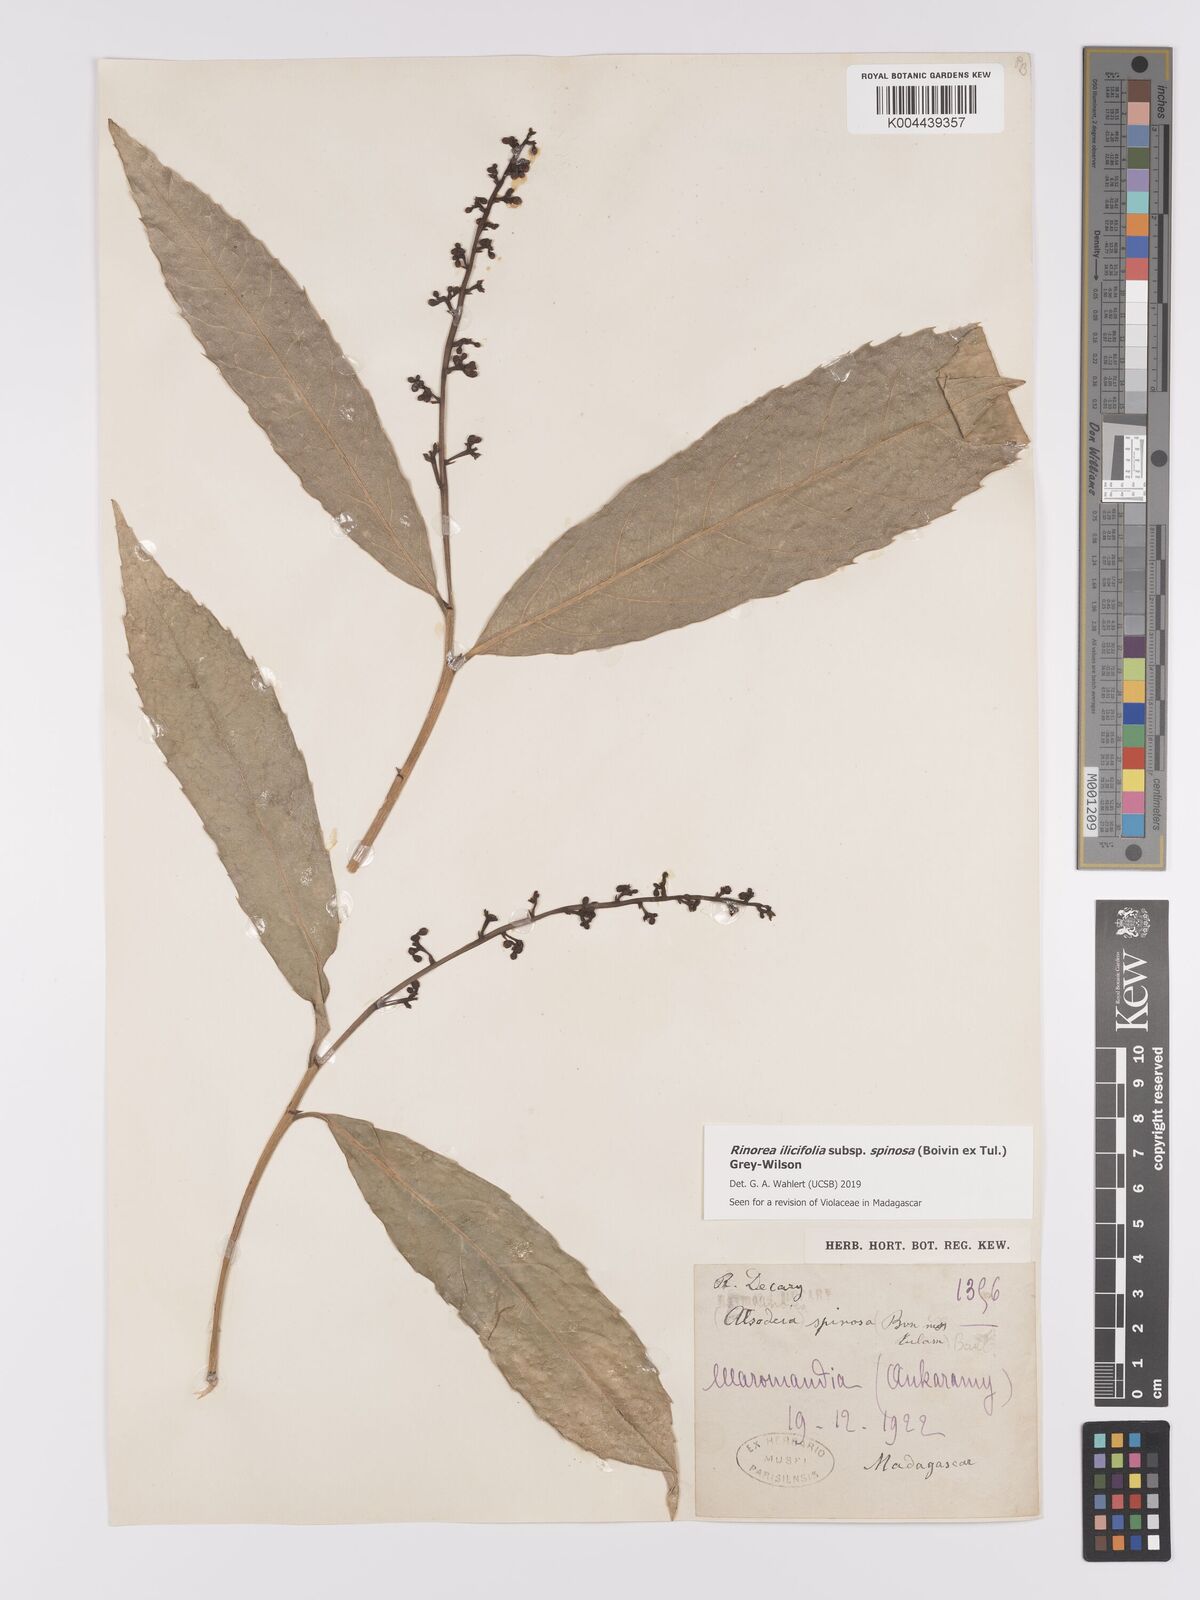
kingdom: Plantae
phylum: Tracheophyta
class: Magnoliopsida
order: Malpighiales
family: Violaceae
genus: Rinorea
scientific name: Rinorea spinosa
